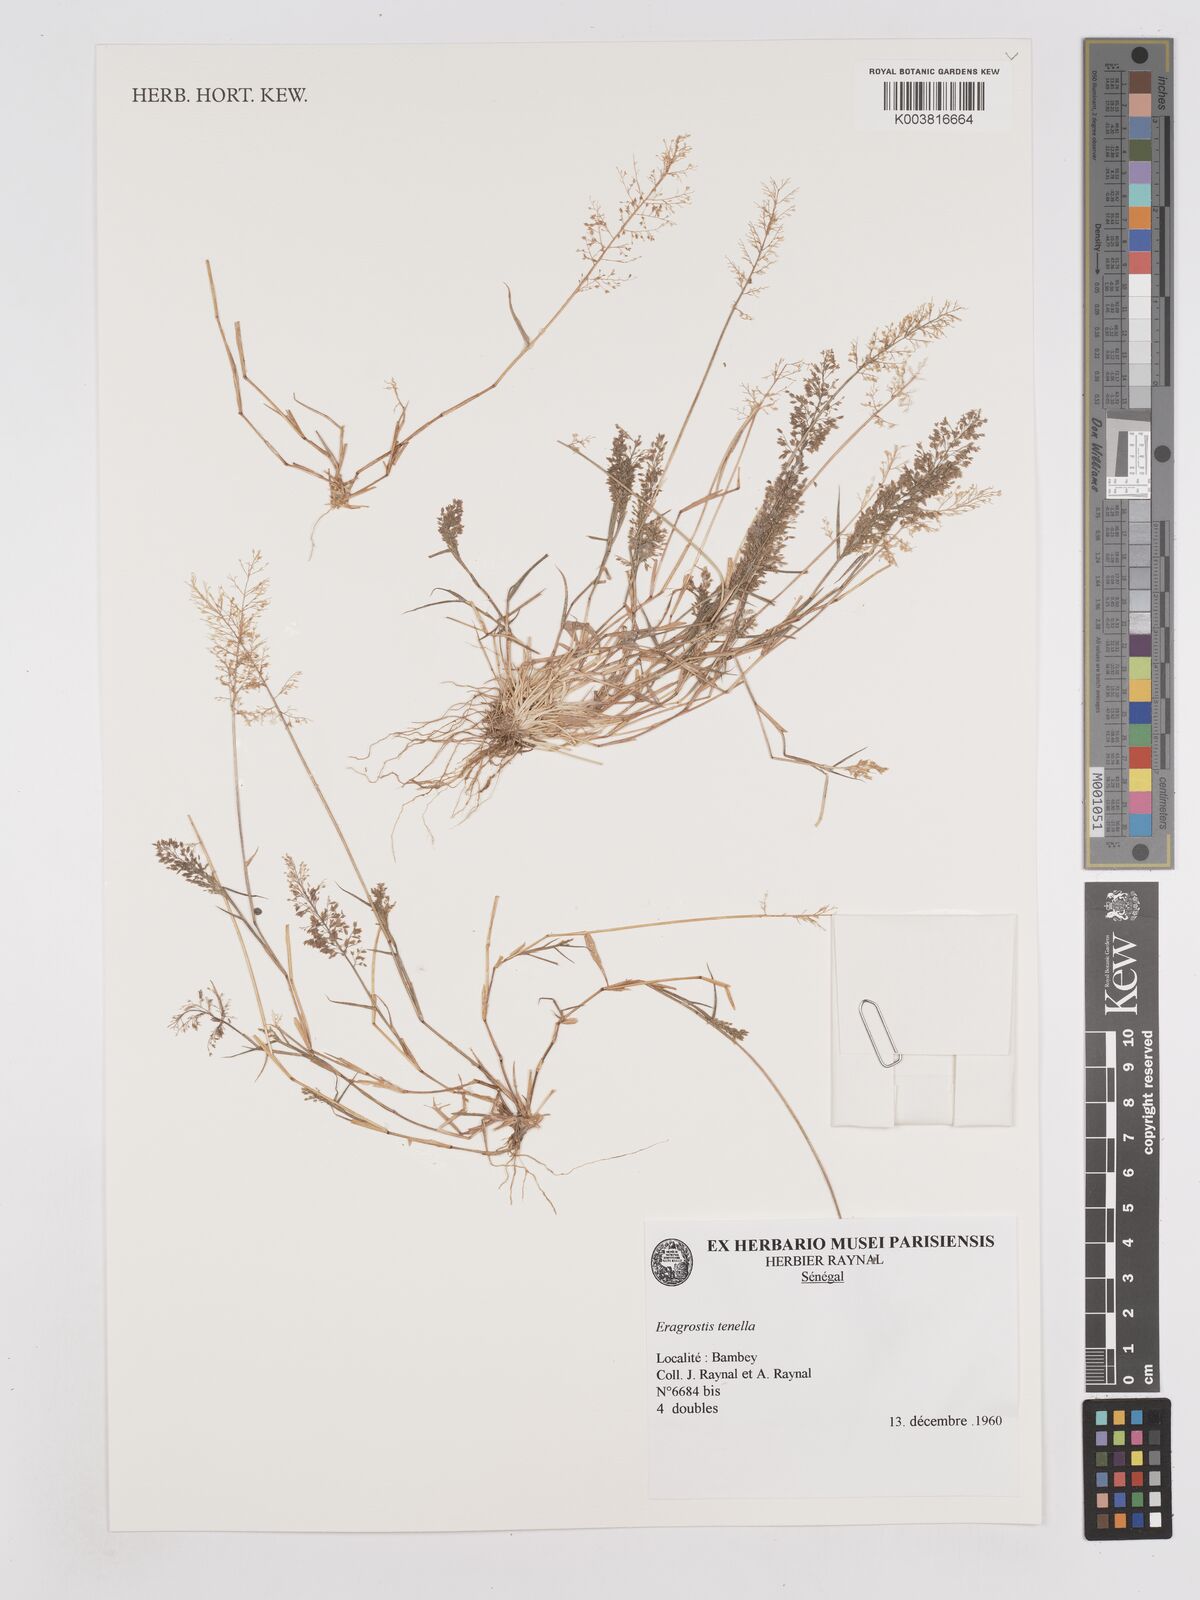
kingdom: Plantae
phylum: Tracheophyta
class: Liliopsida
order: Poales
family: Poaceae
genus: Eragrostis
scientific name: Eragrostis tenella
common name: Japanese lovegrass
